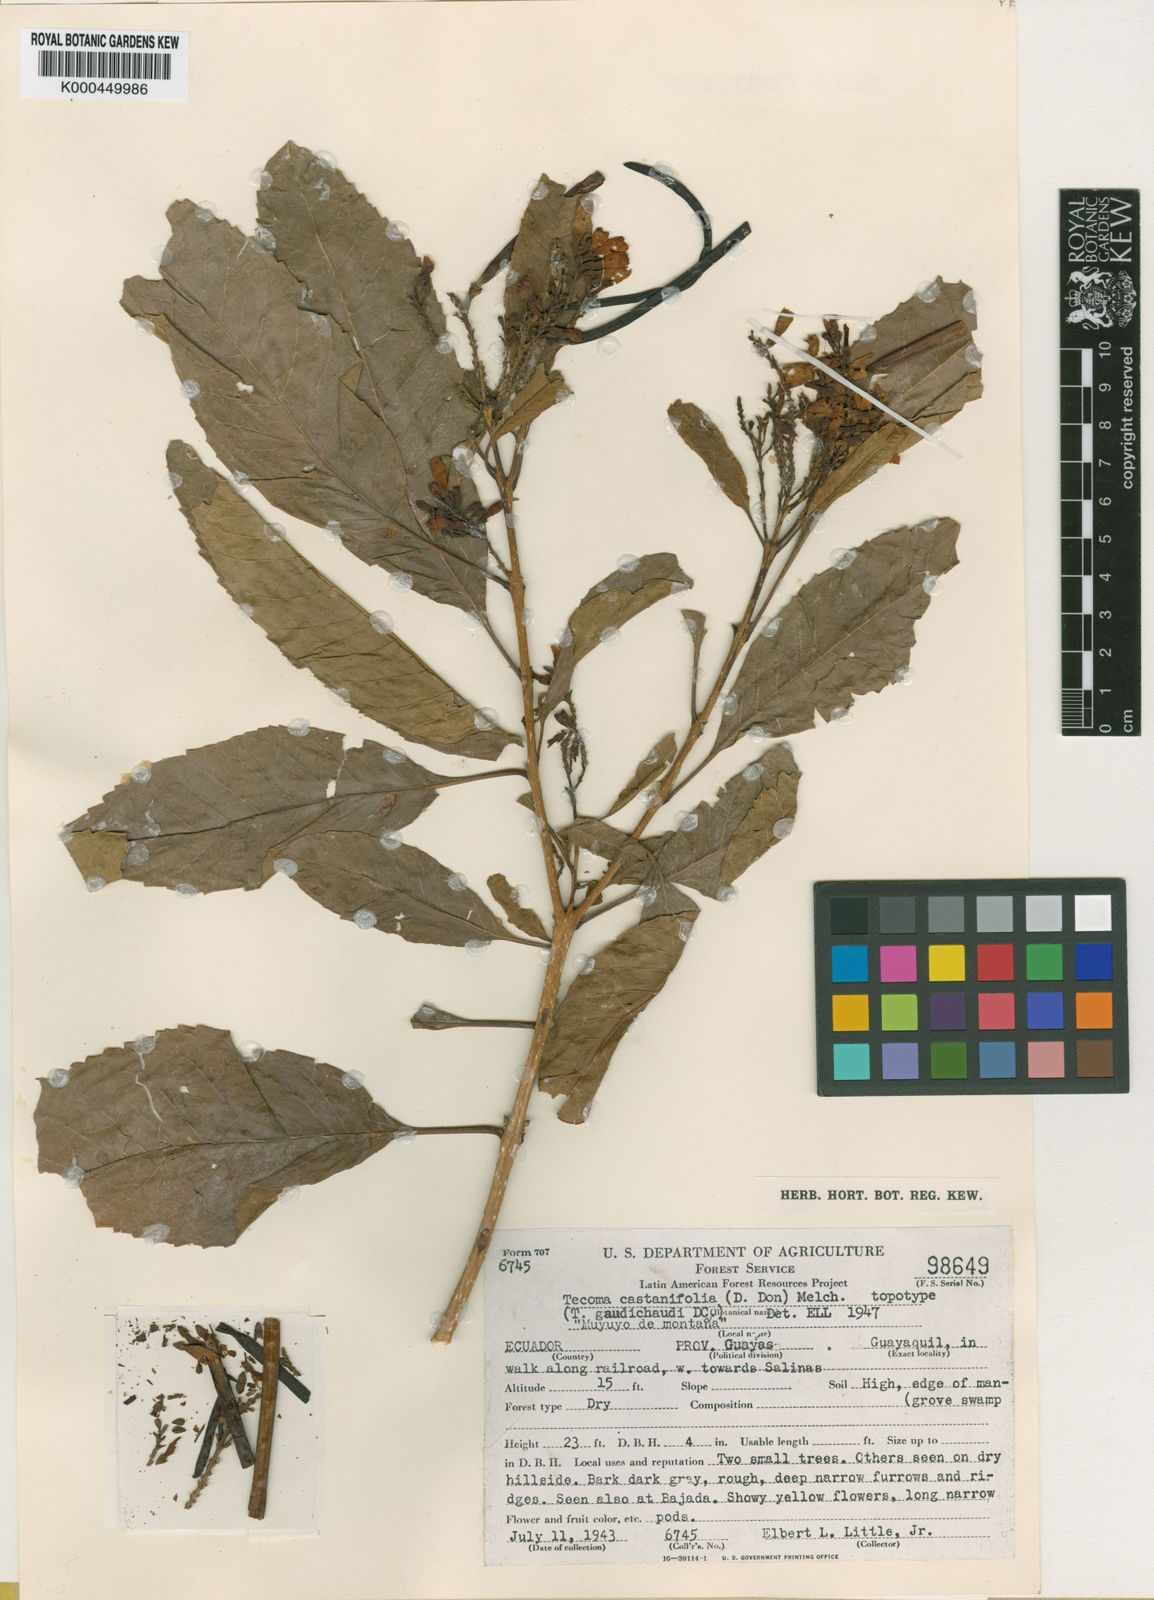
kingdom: Plantae
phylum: Tracheophyta
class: Magnoliopsida
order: Lamiales
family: Bignoniaceae
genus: Tecoma
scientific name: Tecoma castanifolia
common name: Chestnutleaf trumpetbush
